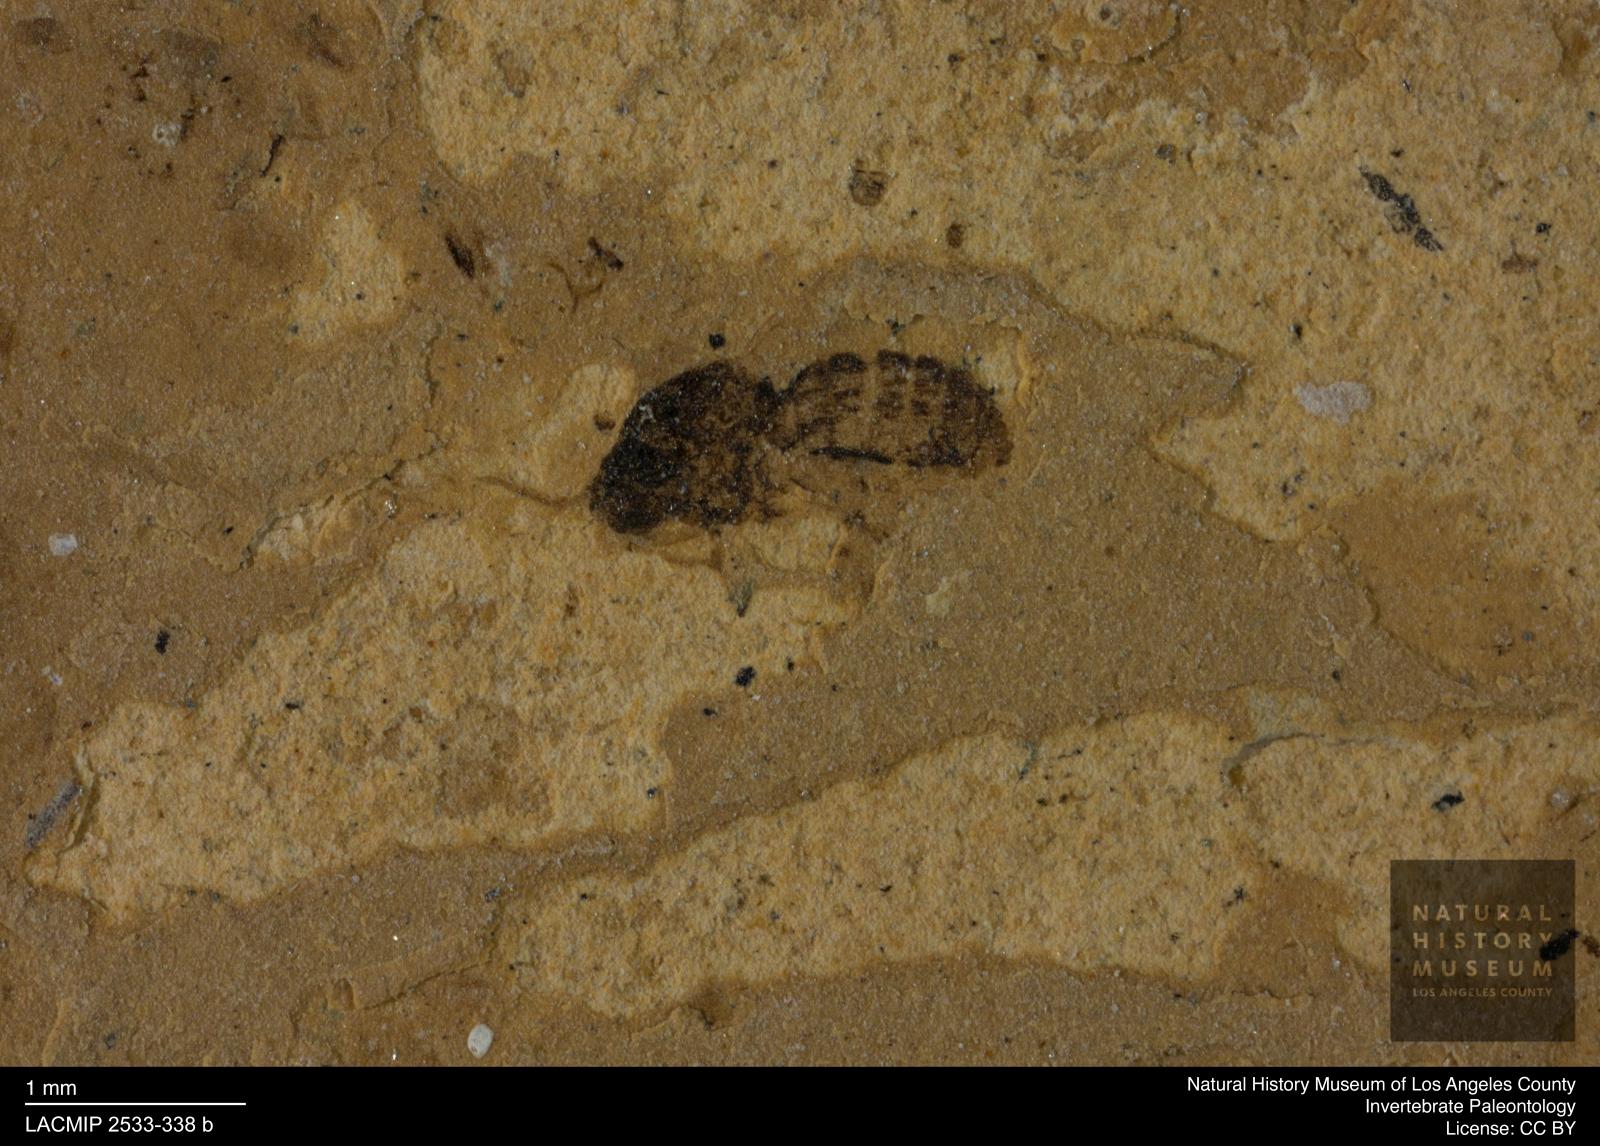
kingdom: Animalia
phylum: Arthropoda
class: Insecta
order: Diptera
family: Ceratopogonidae
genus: Culicoides
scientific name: Culicoides abbreviatipennis
